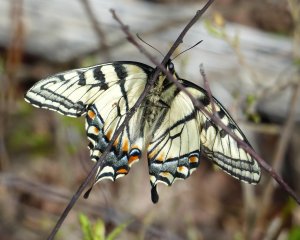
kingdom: Animalia
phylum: Arthropoda
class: Insecta
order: Lepidoptera
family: Papilionidae
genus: Pterourus
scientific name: Pterourus canadensis
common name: Canadian Tiger Swallowtail
